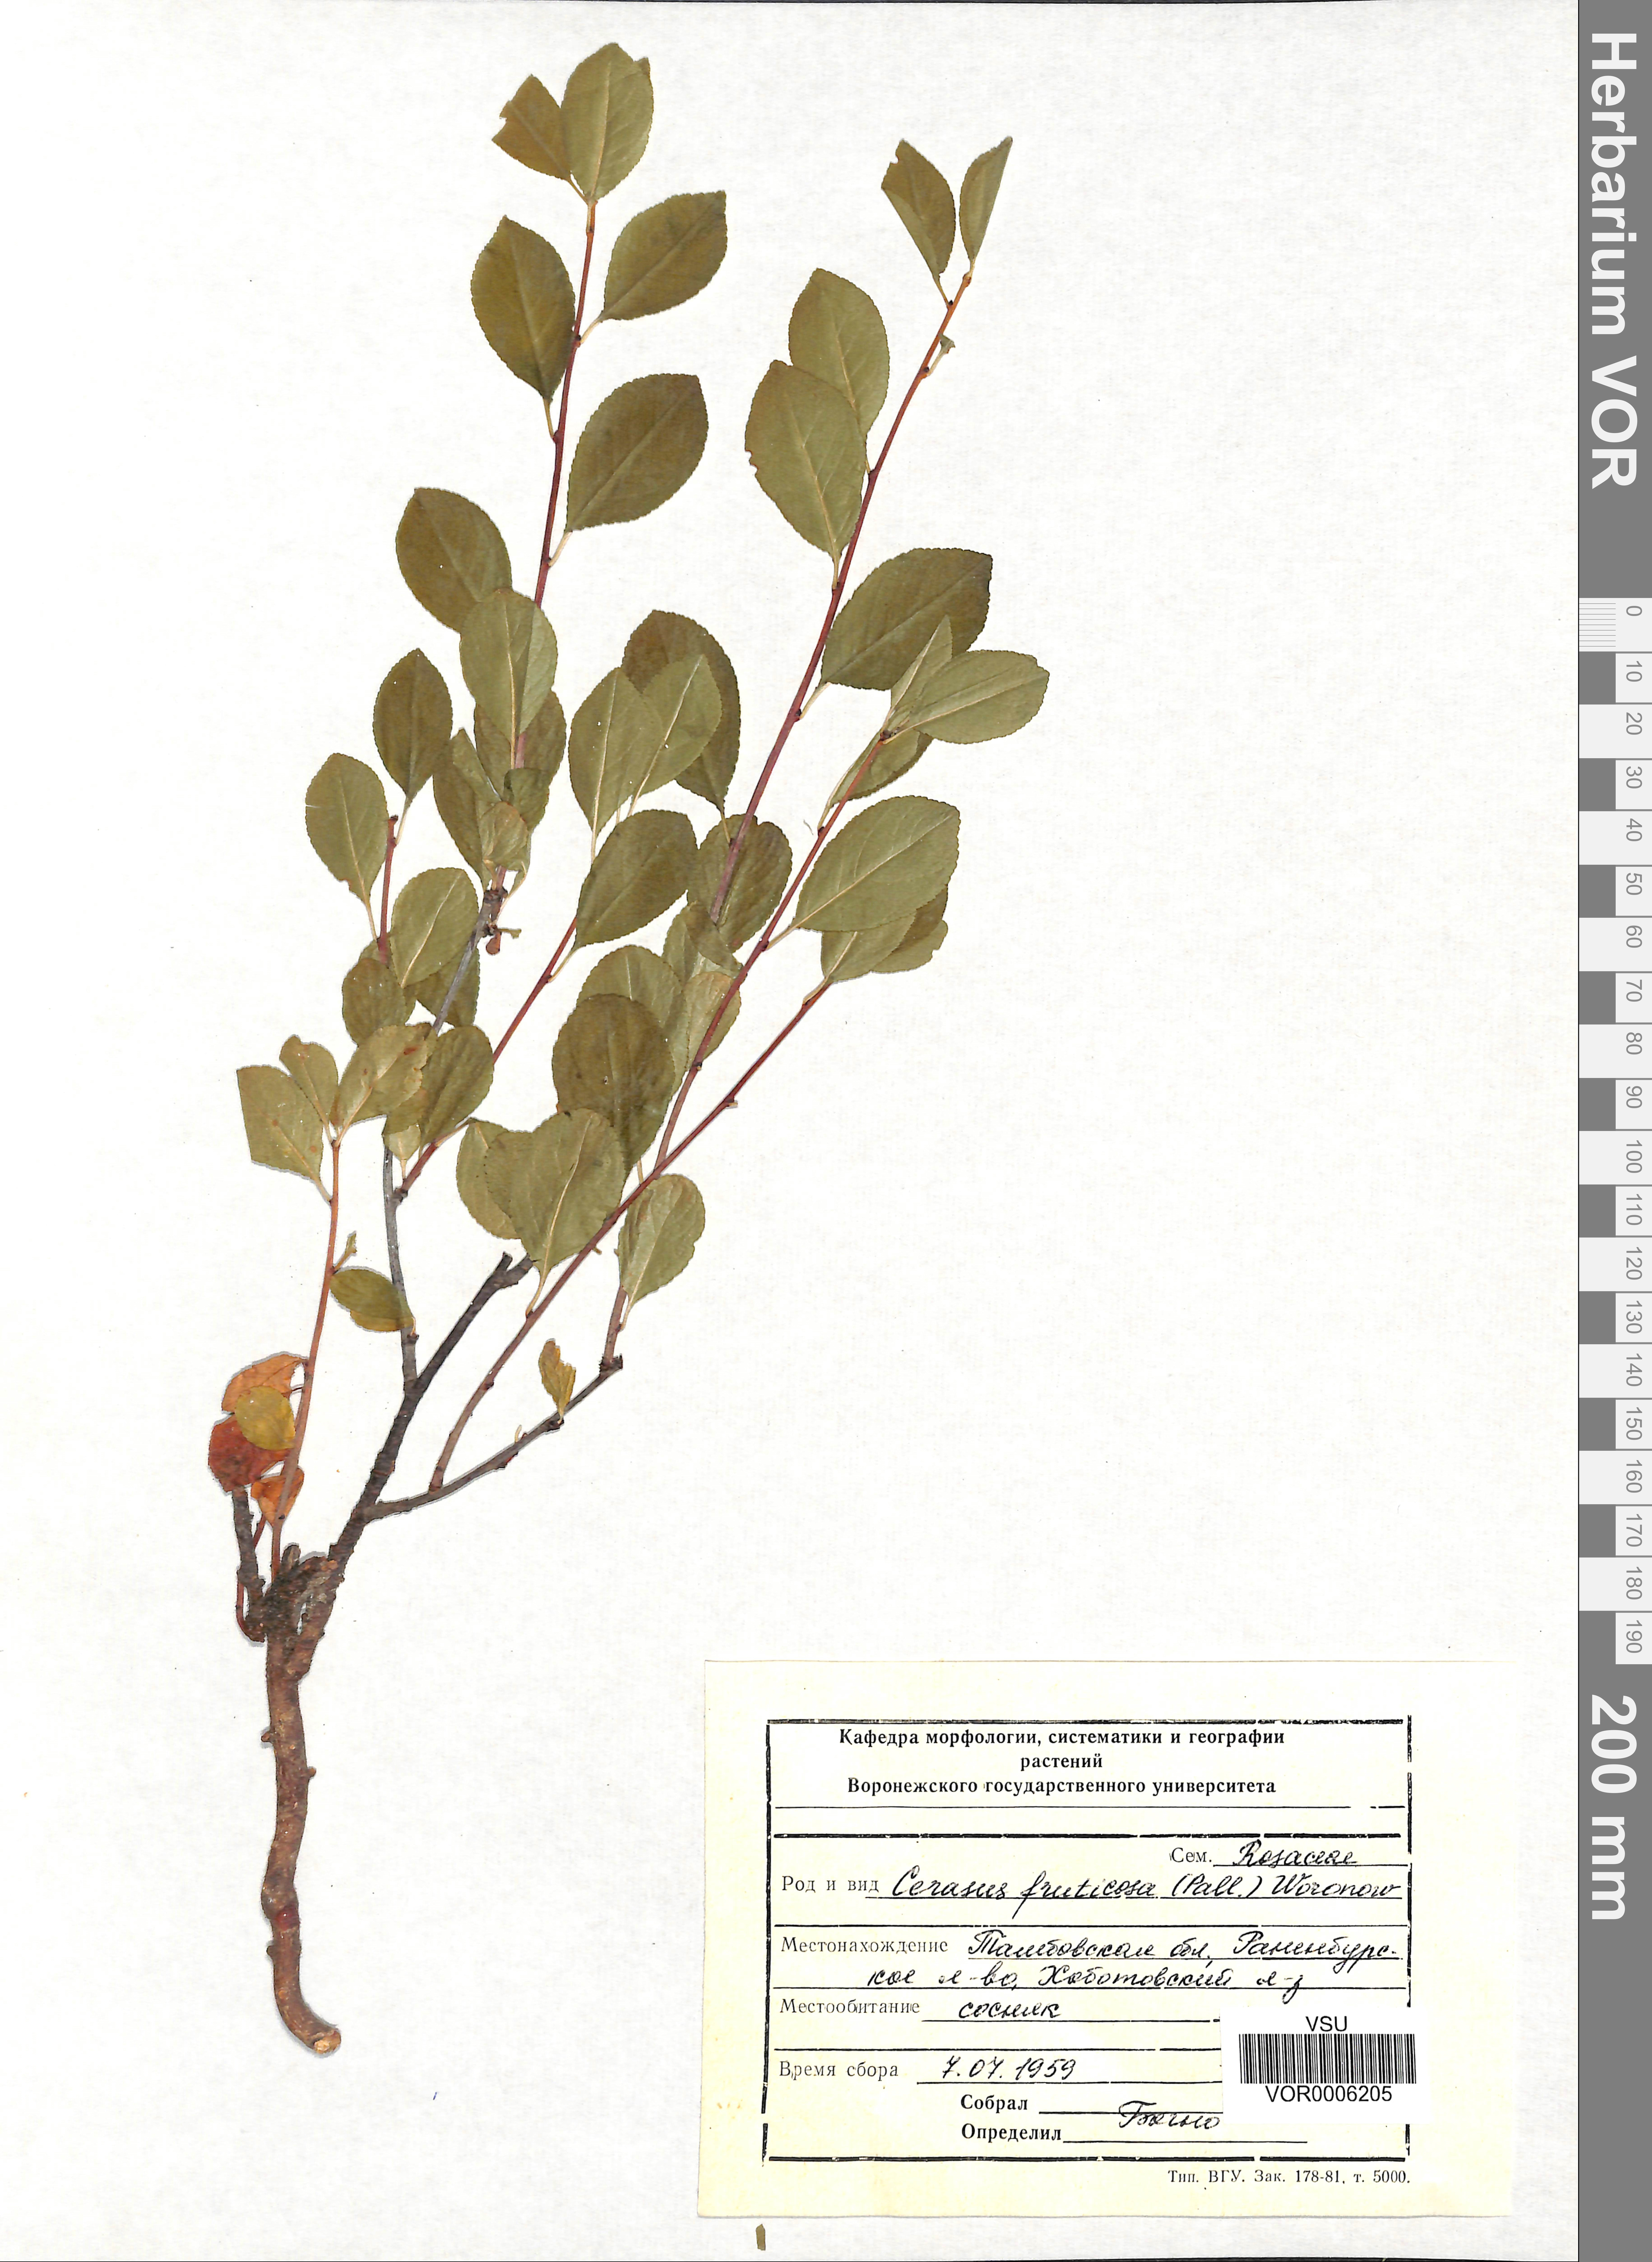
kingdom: Plantae
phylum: Tracheophyta
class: Magnoliopsida
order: Rosales
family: Rosaceae
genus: Prunus
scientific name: Prunus fruticosa
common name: European dwarf cherry
